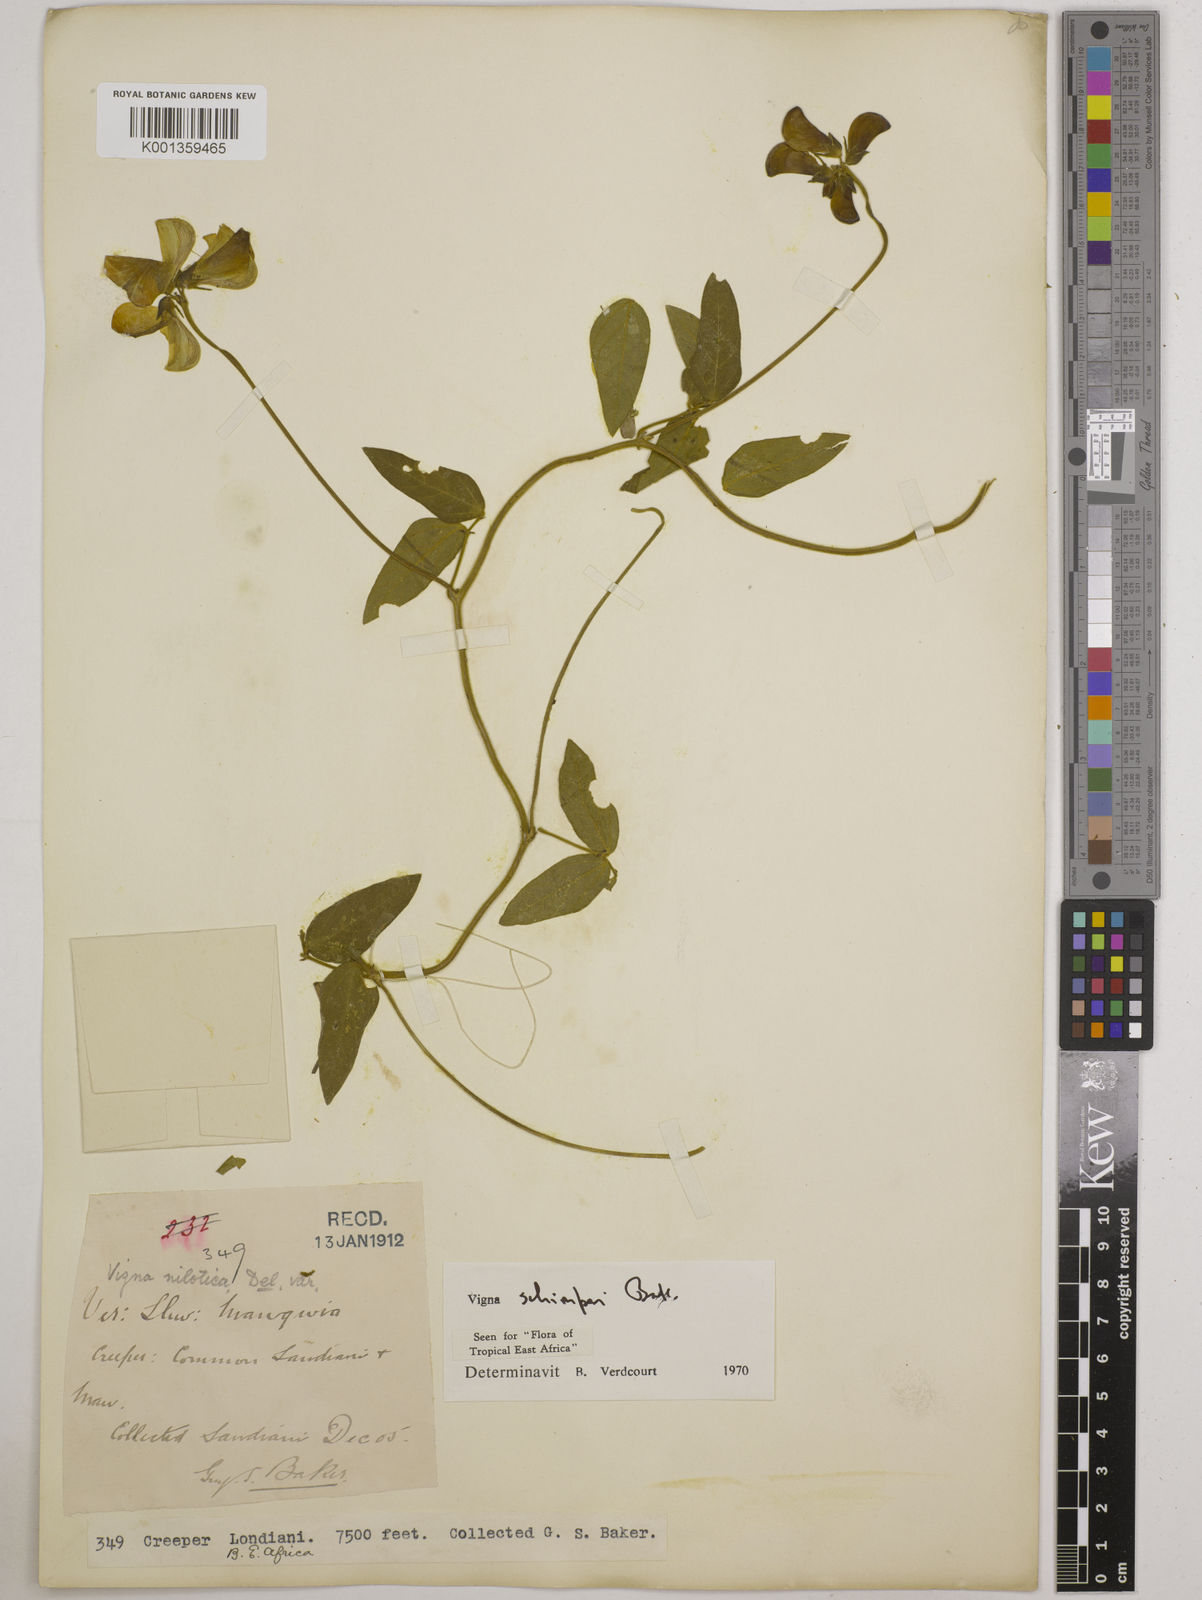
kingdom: Plantae
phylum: Tracheophyta
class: Magnoliopsida
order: Fabales
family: Fabaceae
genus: Vigna
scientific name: Vigna schimperi
